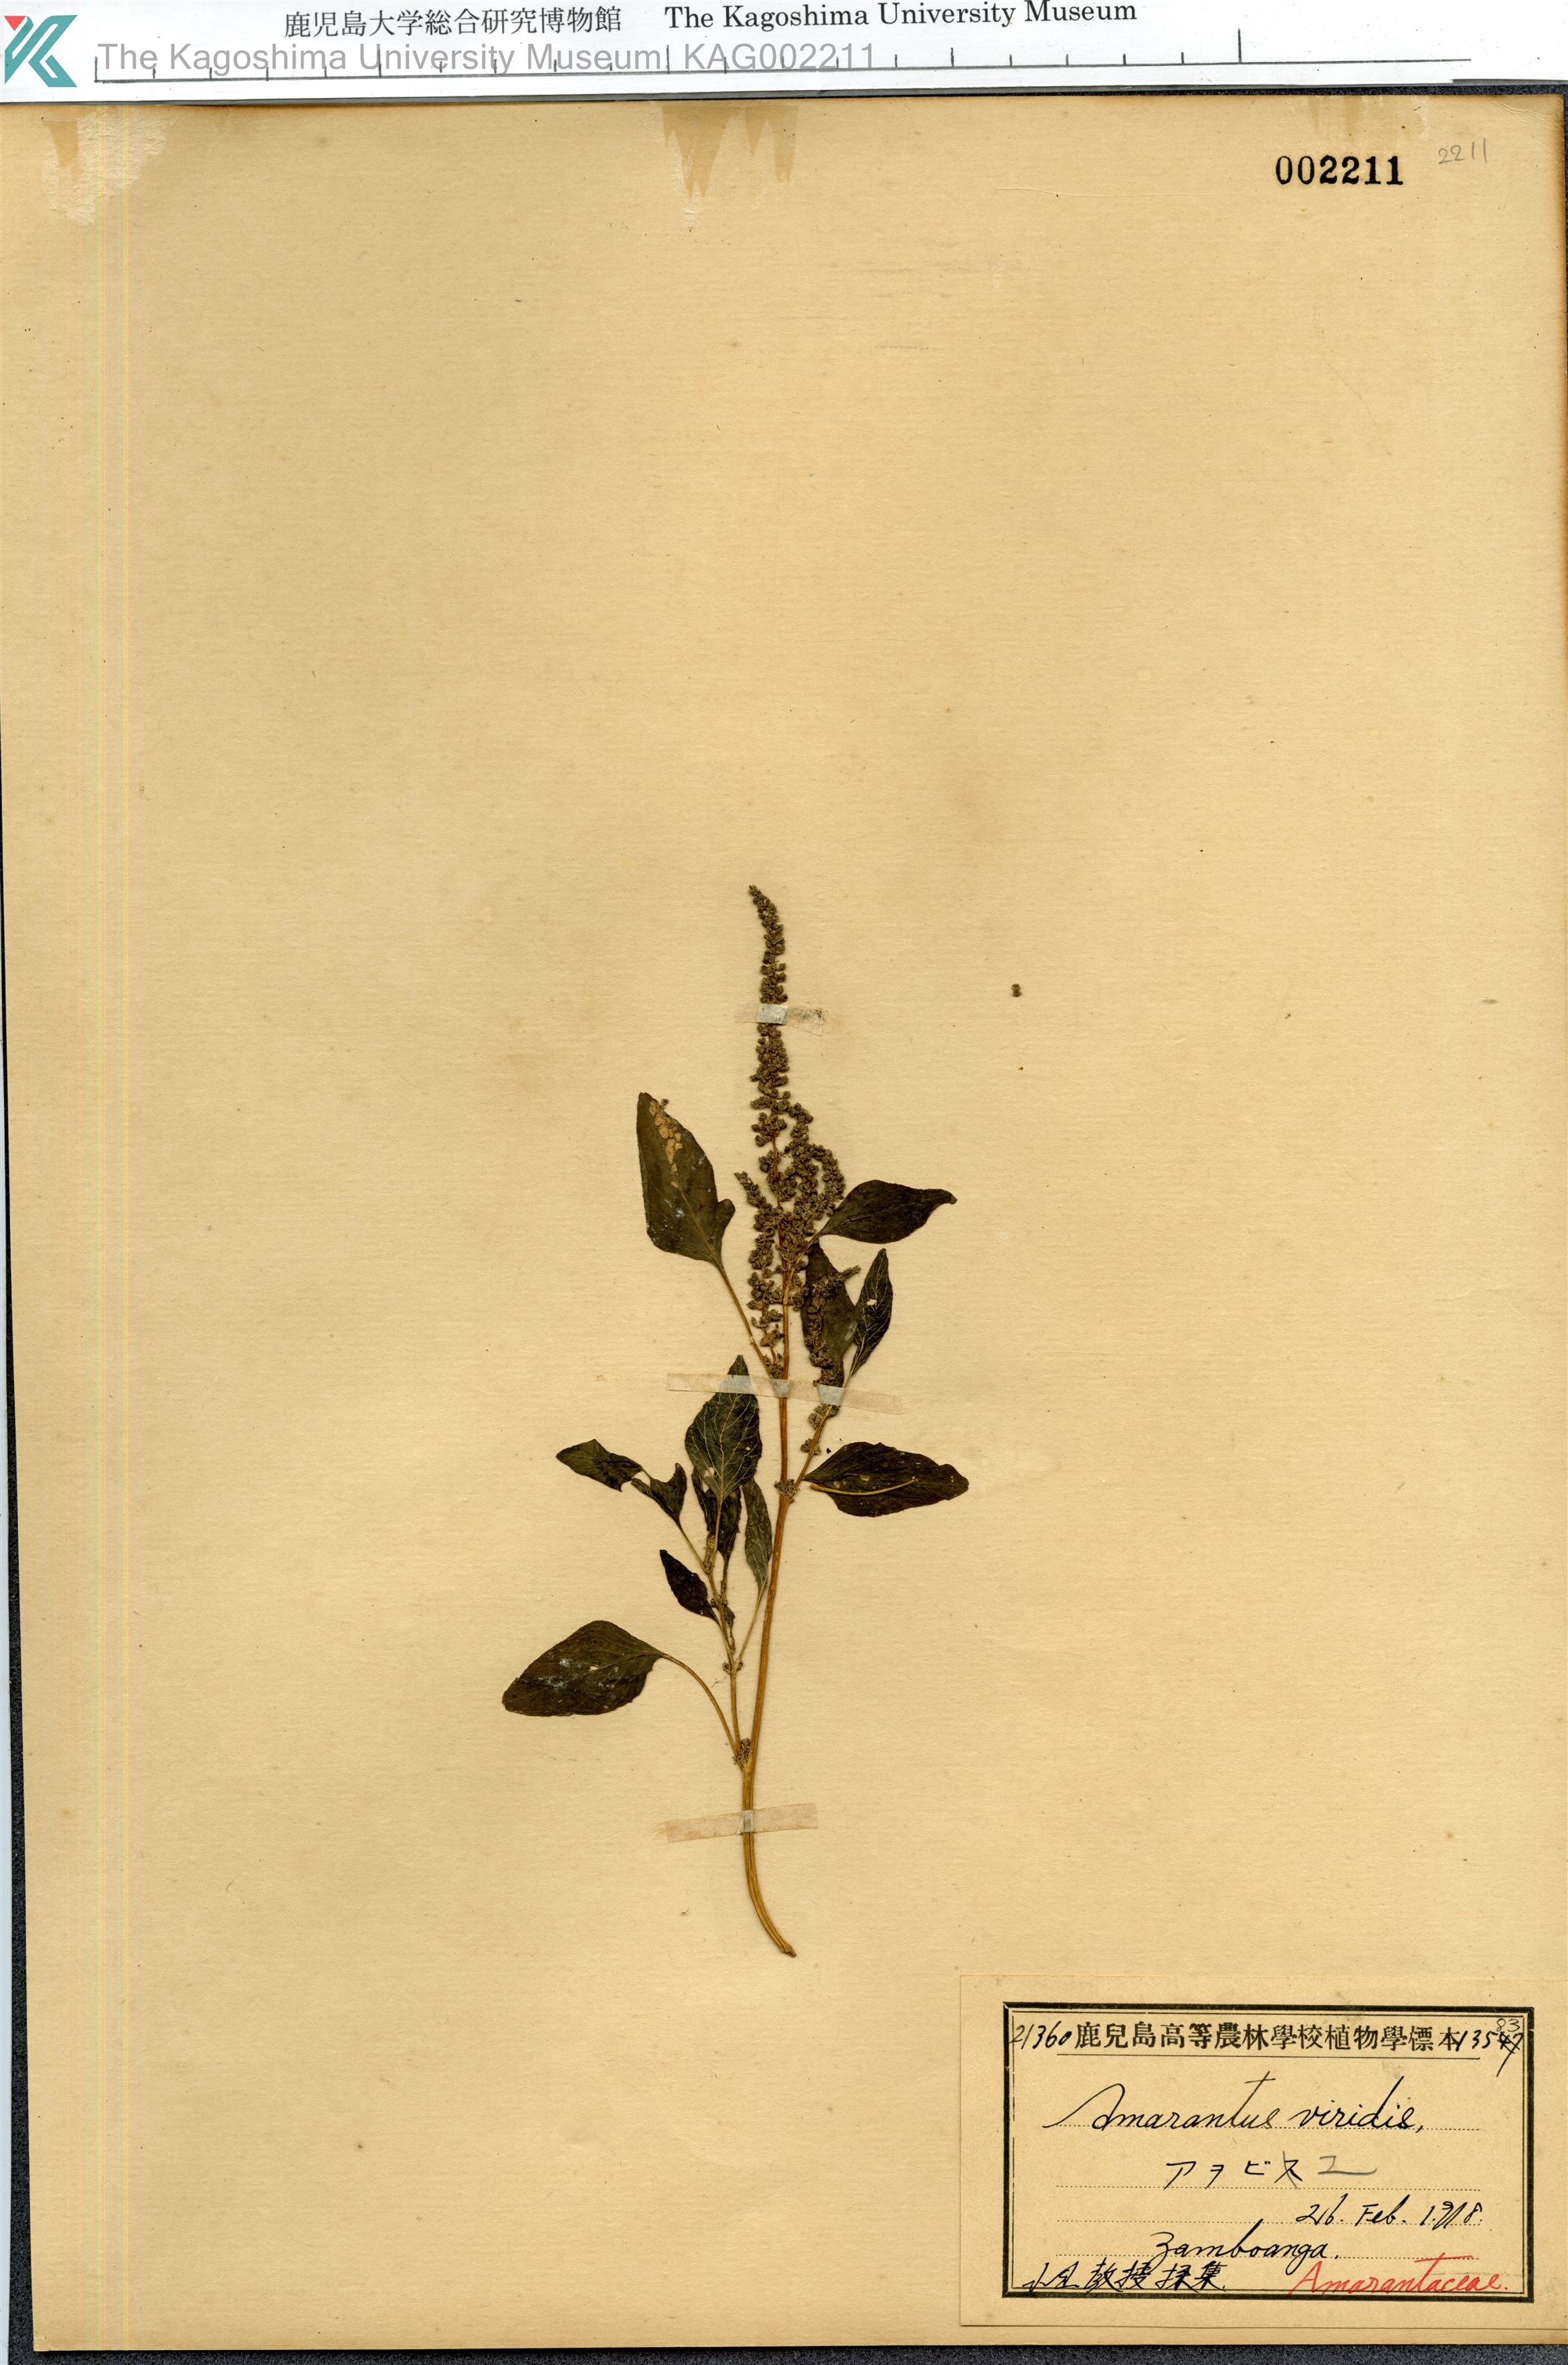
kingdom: Plantae
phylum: Tracheophyta
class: Magnoliopsida
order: Caryophyllales
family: Amaranthaceae
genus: Amaranthus
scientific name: Amaranthus viridis
